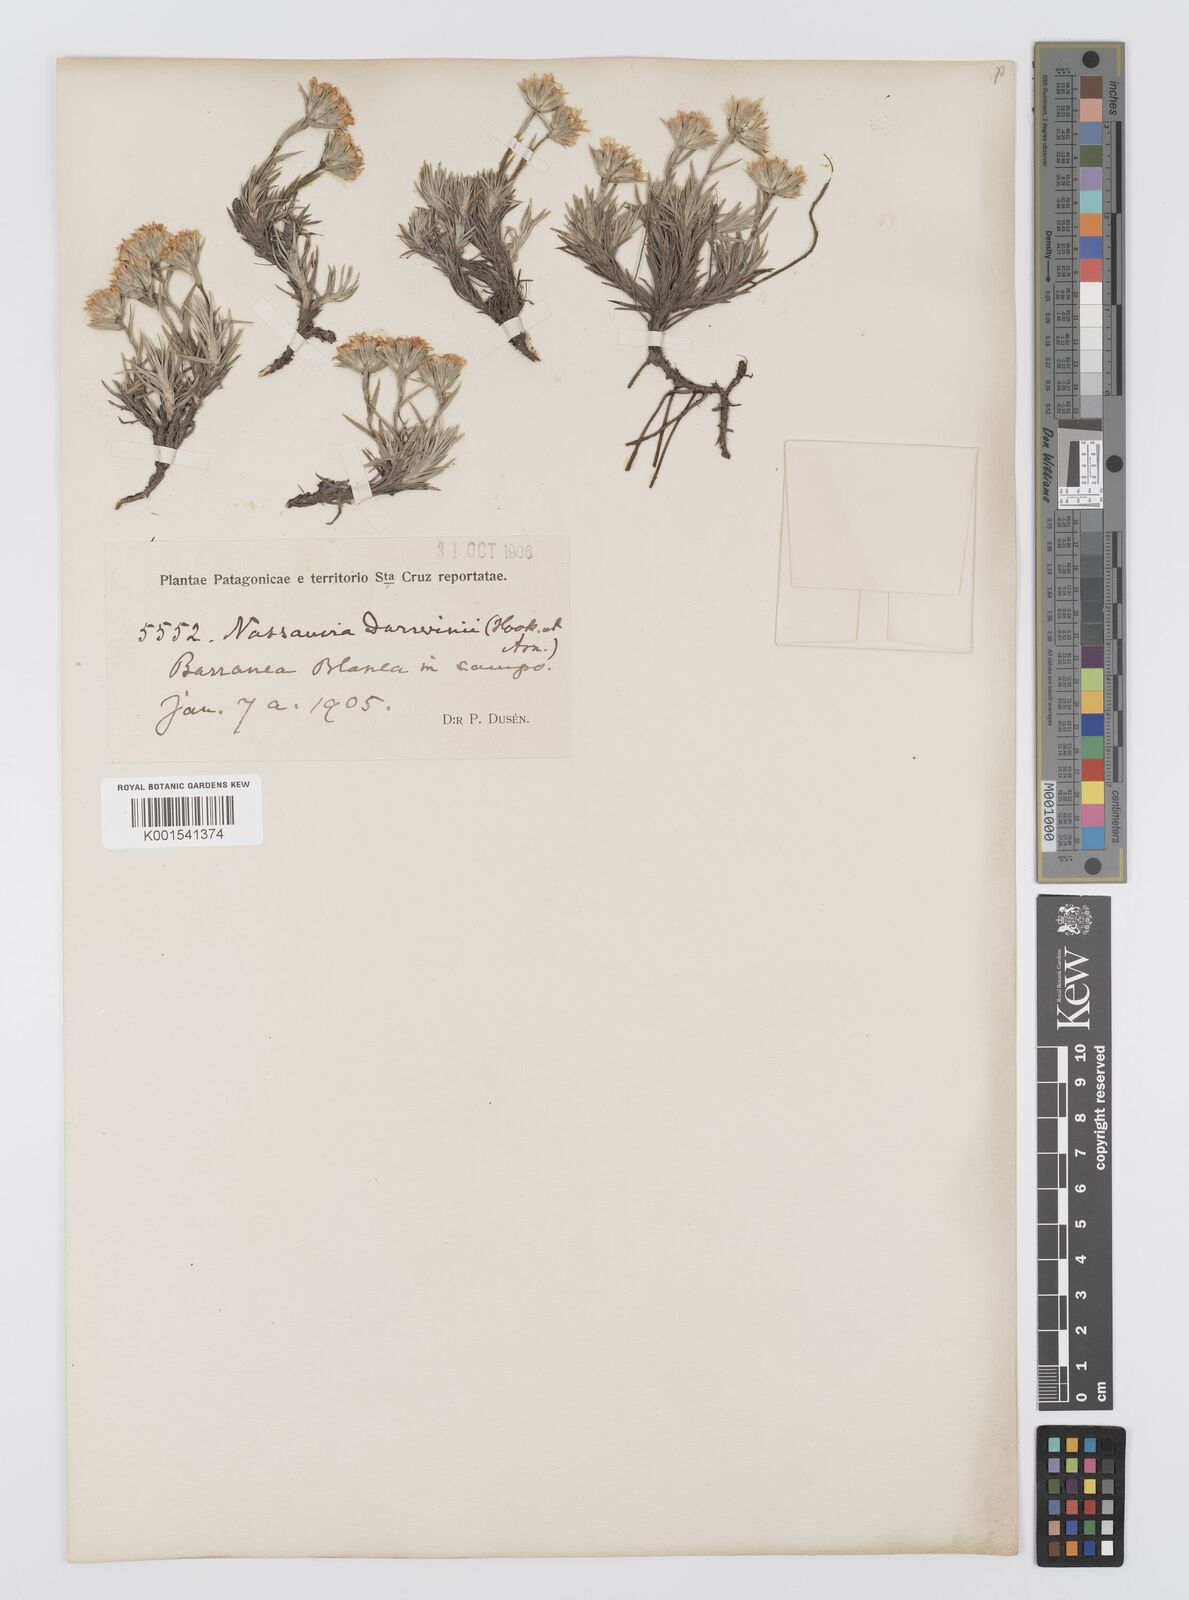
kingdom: Plantae
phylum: Tracheophyta
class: Magnoliopsida
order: Asterales
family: Asteraceae
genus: Nassauvia
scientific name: Nassauvia darwinii
